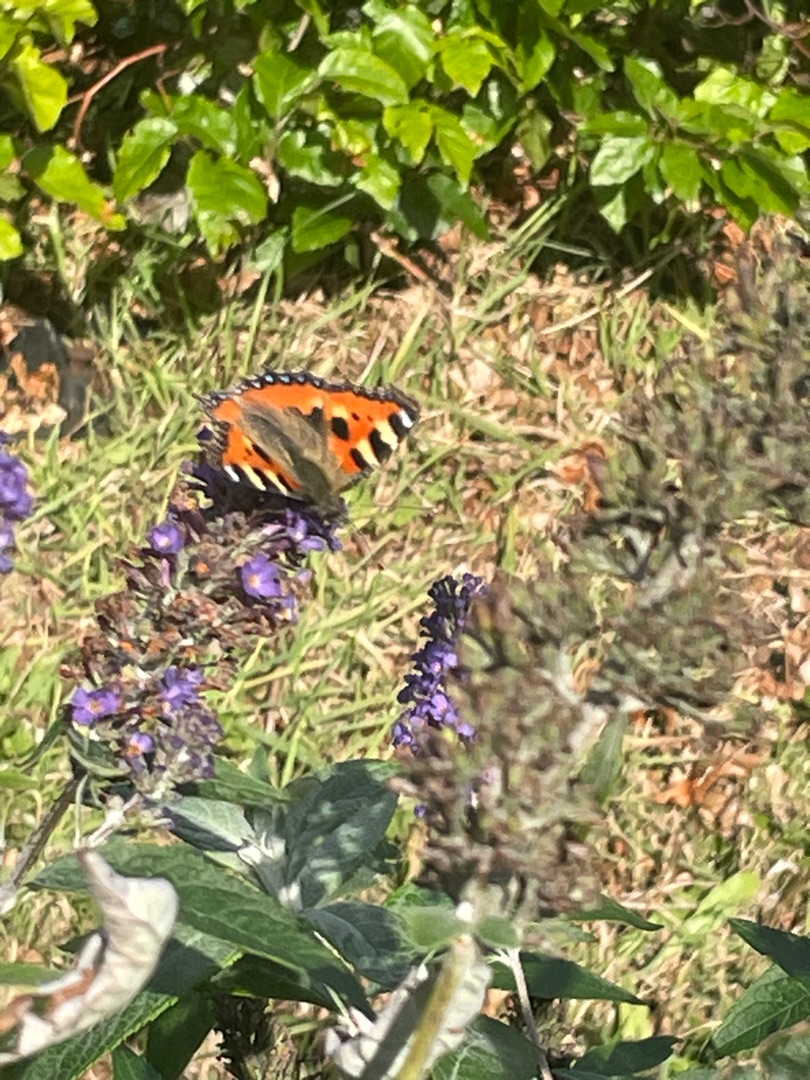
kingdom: Animalia
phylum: Arthropoda
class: Insecta
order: Lepidoptera
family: Nymphalidae
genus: Aglais
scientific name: Aglais urticae
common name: Nældens takvinge
